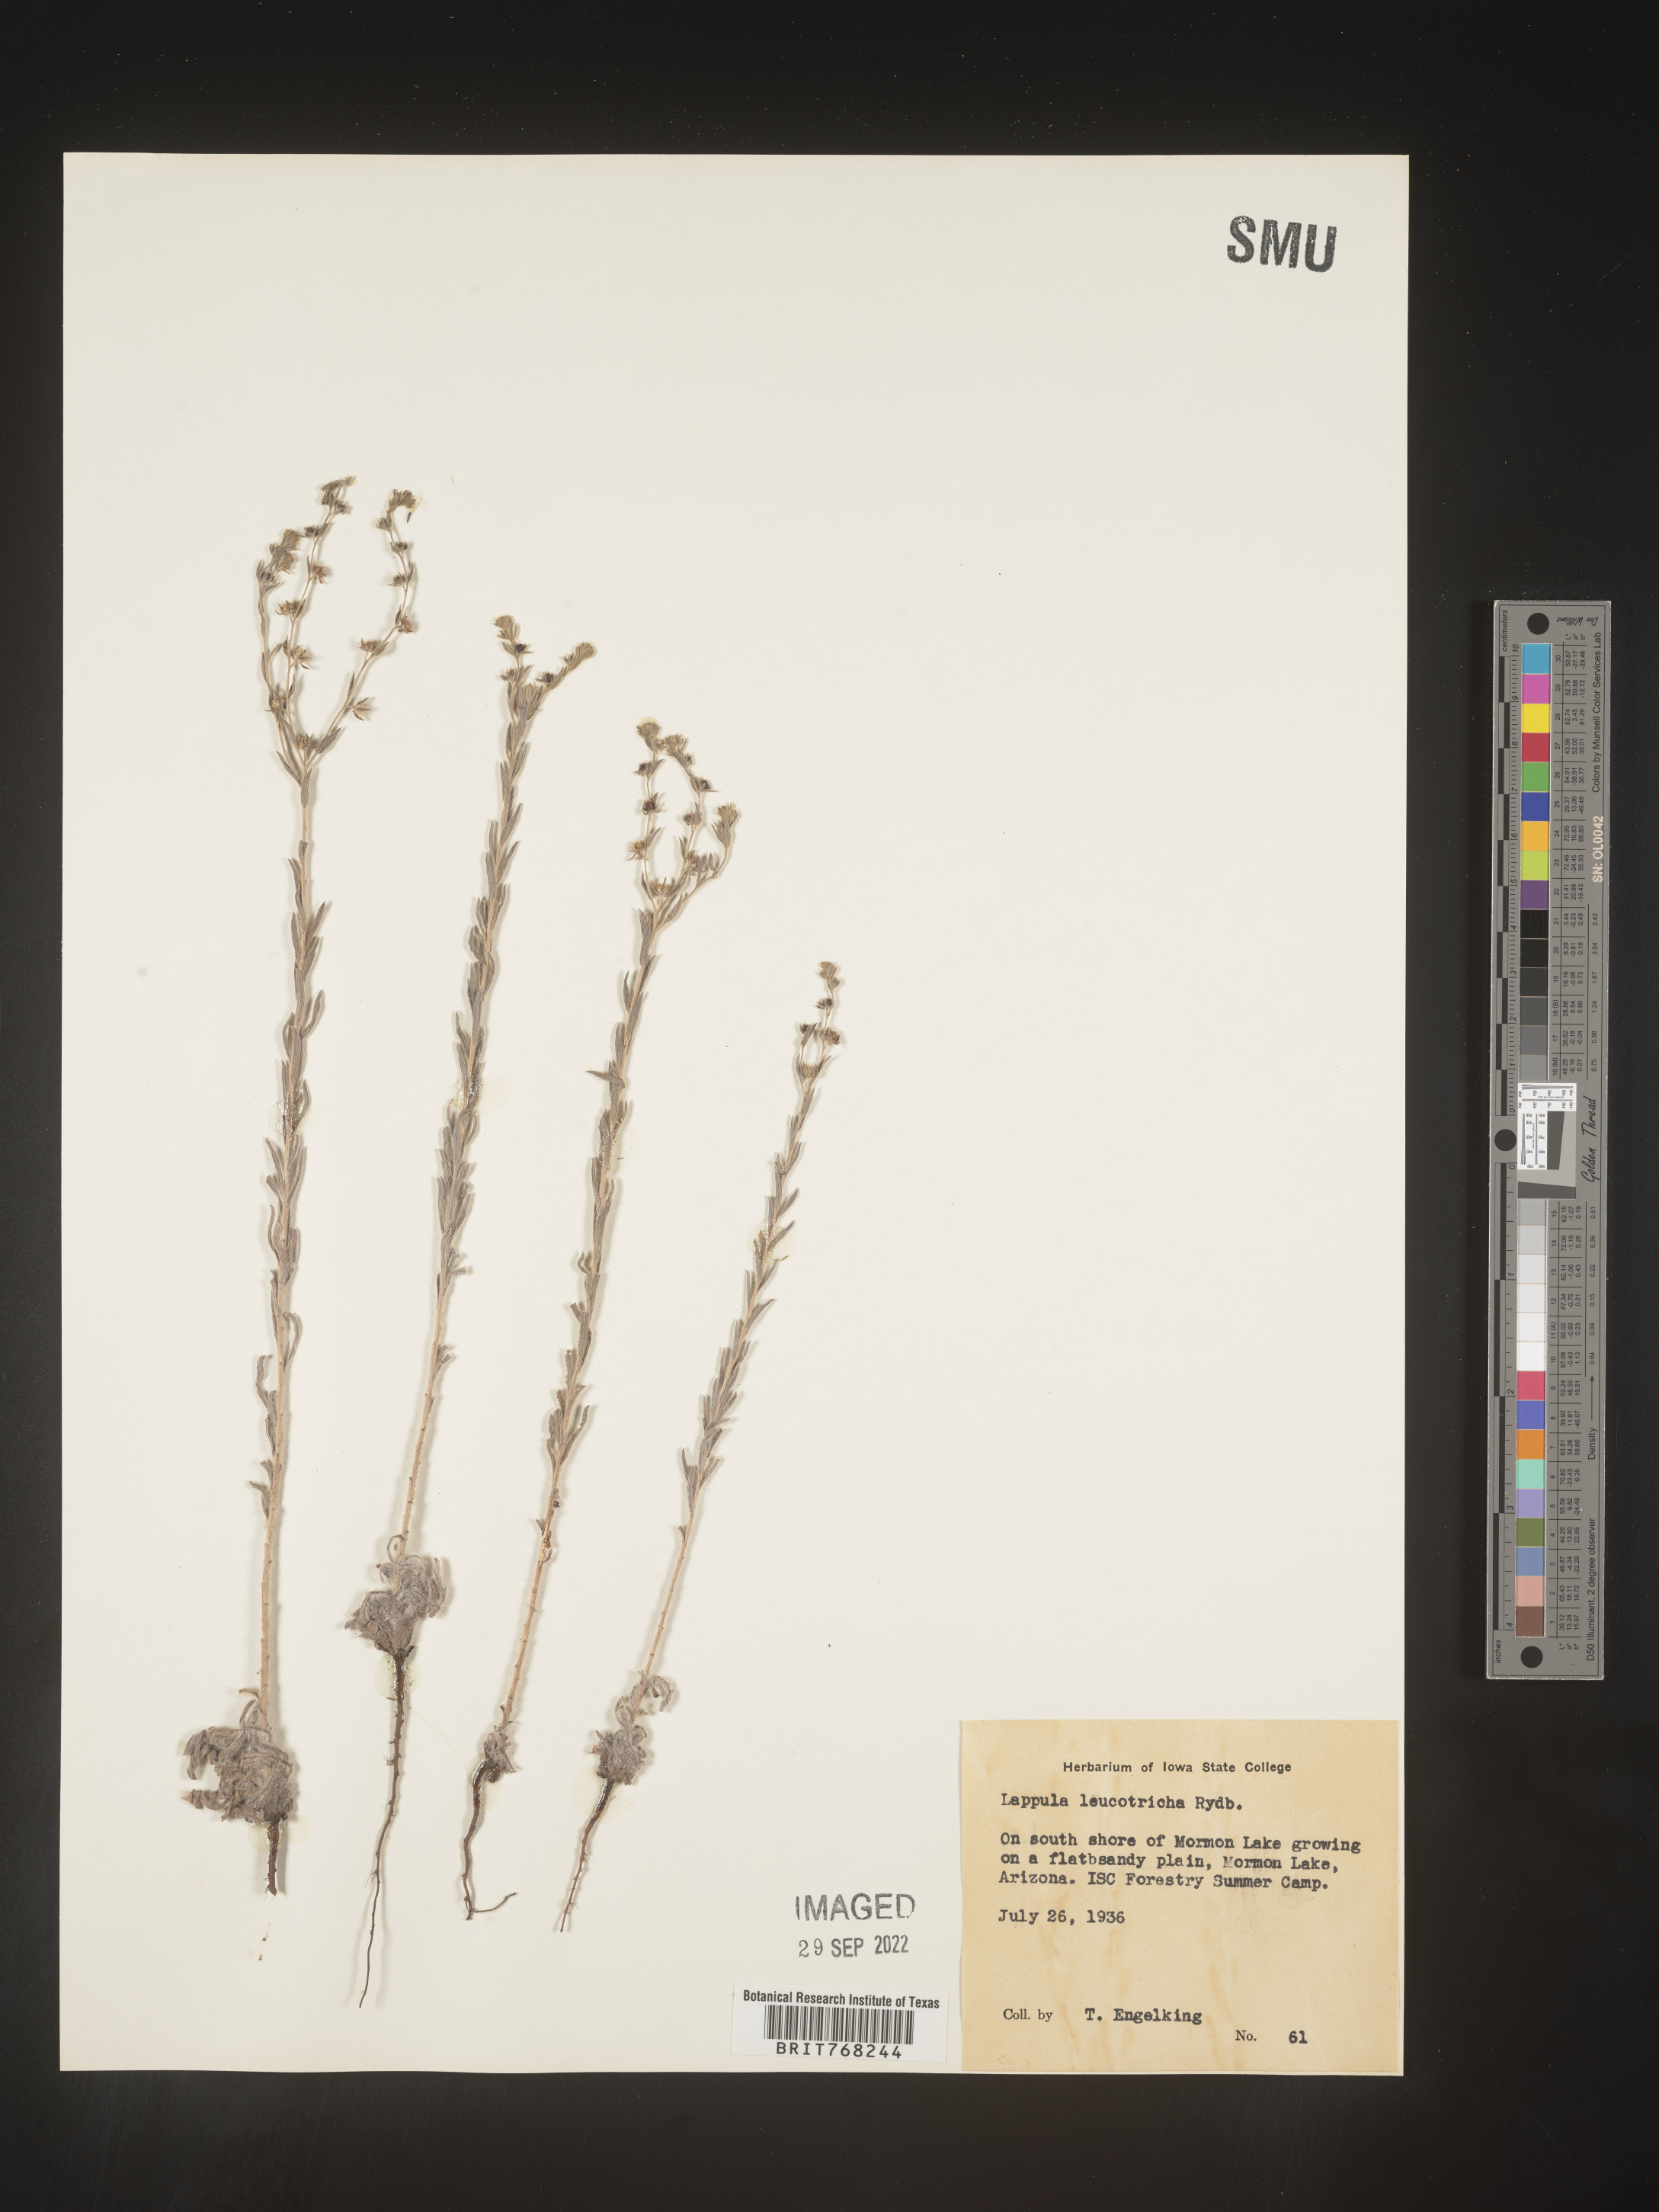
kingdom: Plantae
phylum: Tracheophyta
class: Magnoliopsida
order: Boraginales
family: Boraginaceae
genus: Lappula
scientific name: Lappula
